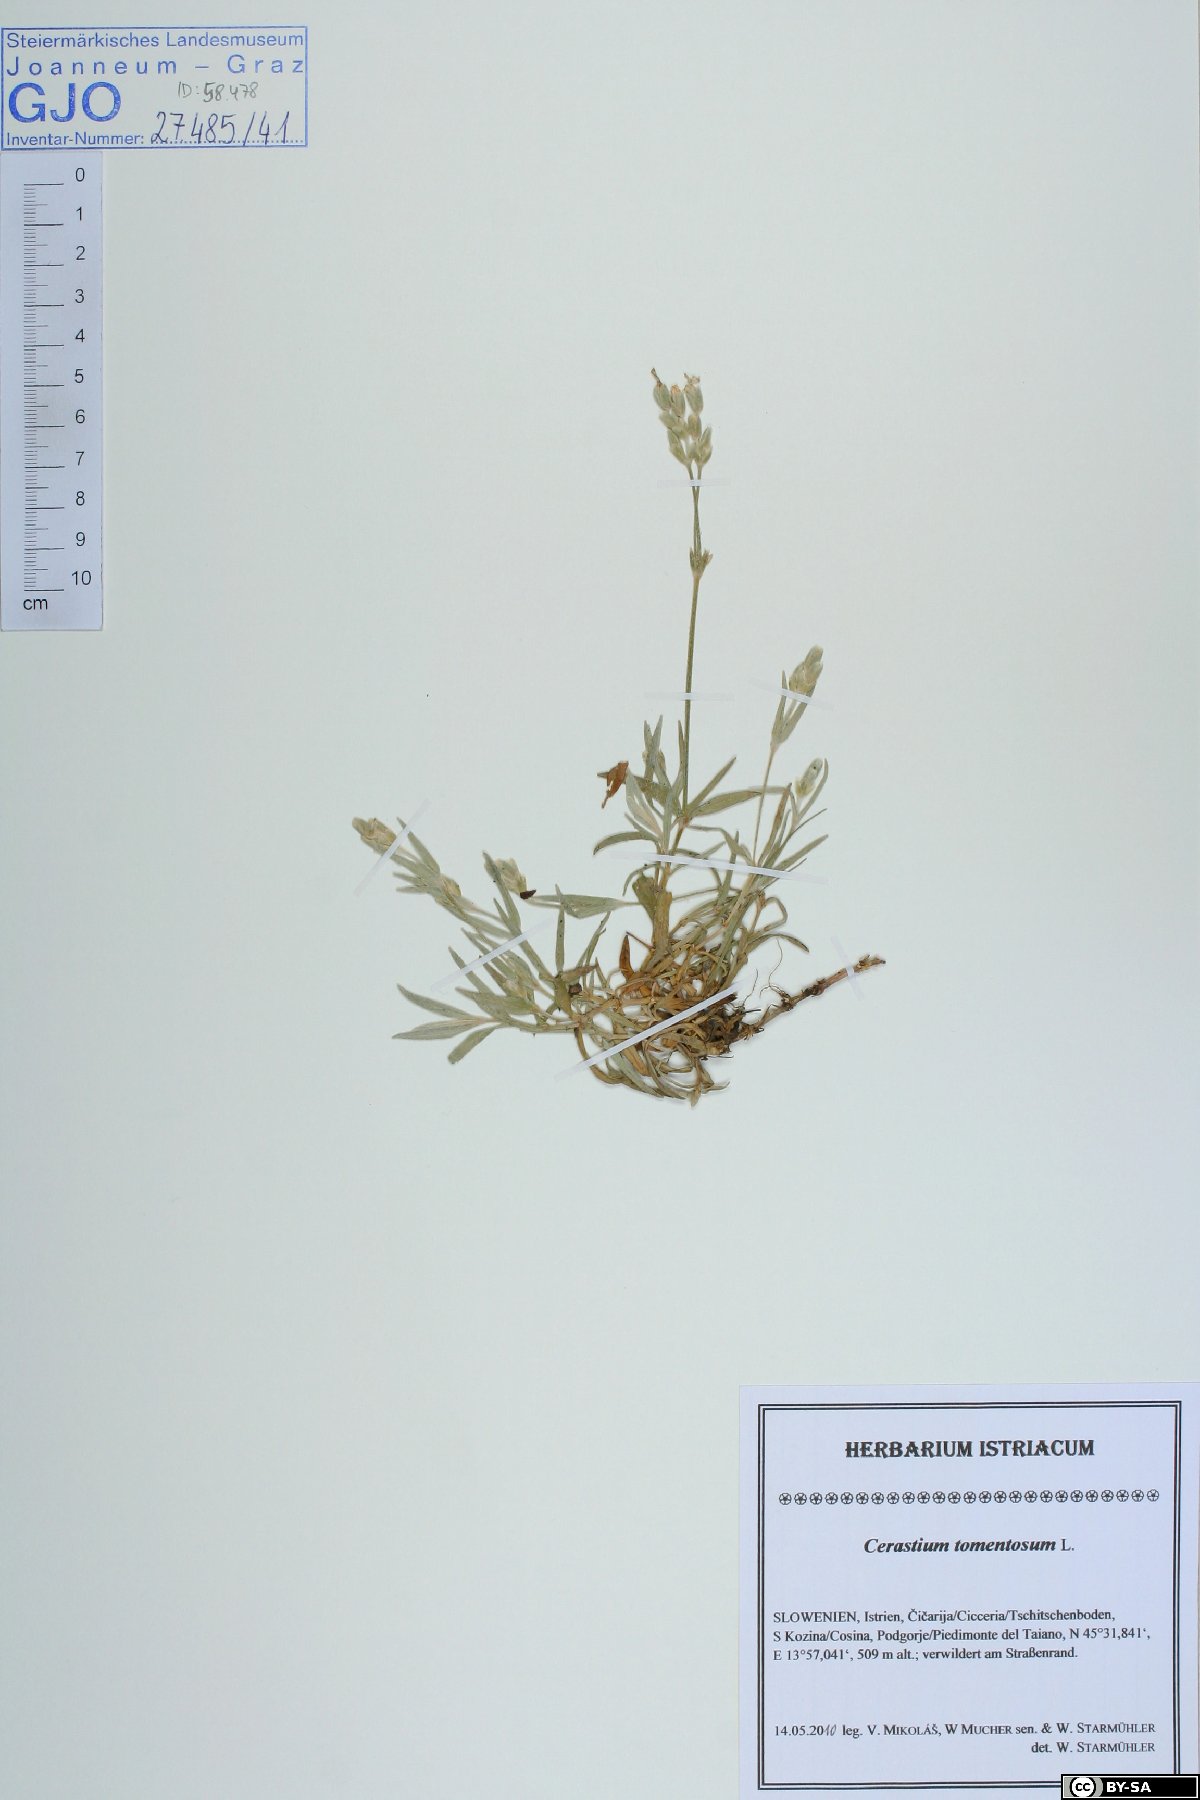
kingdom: Plantae
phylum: Tracheophyta
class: Magnoliopsida
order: Caryophyllales
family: Caryophyllaceae
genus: Cerastium
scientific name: Cerastium tomentosum
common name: Snow-in-summer
